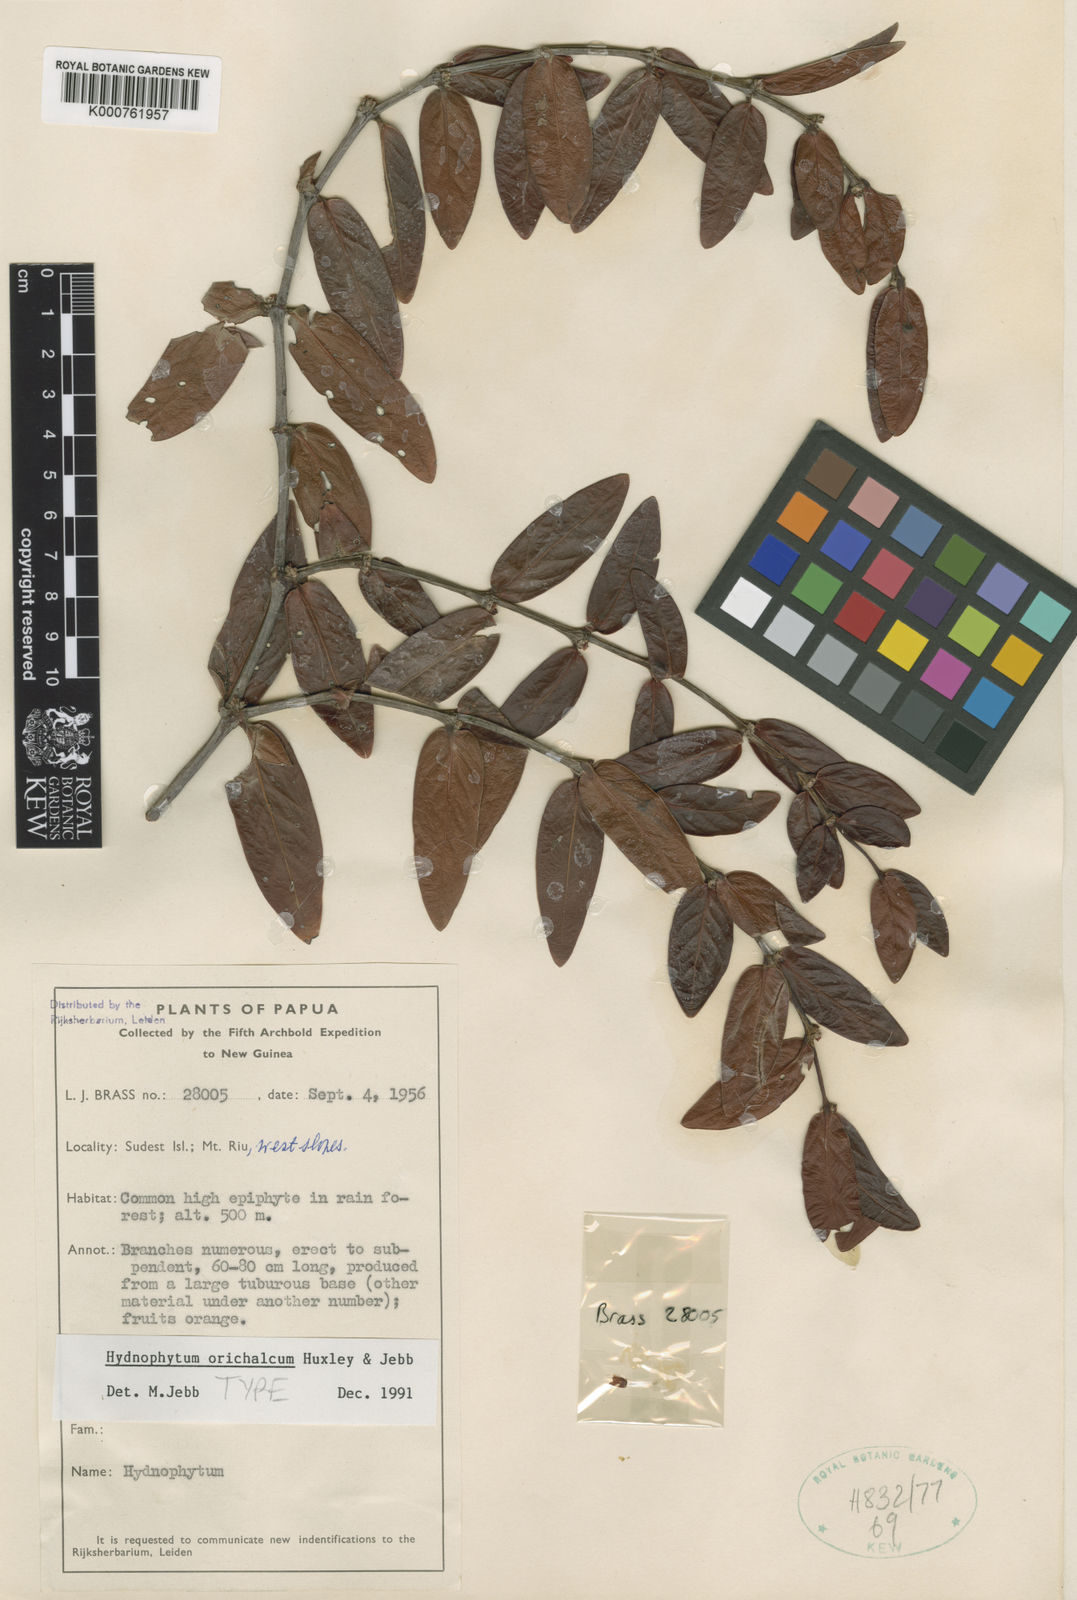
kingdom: Plantae
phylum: Tracheophyta
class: Magnoliopsida
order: Gentianales
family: Rubiaceae
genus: Hydnophytum
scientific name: Hydnophytum
